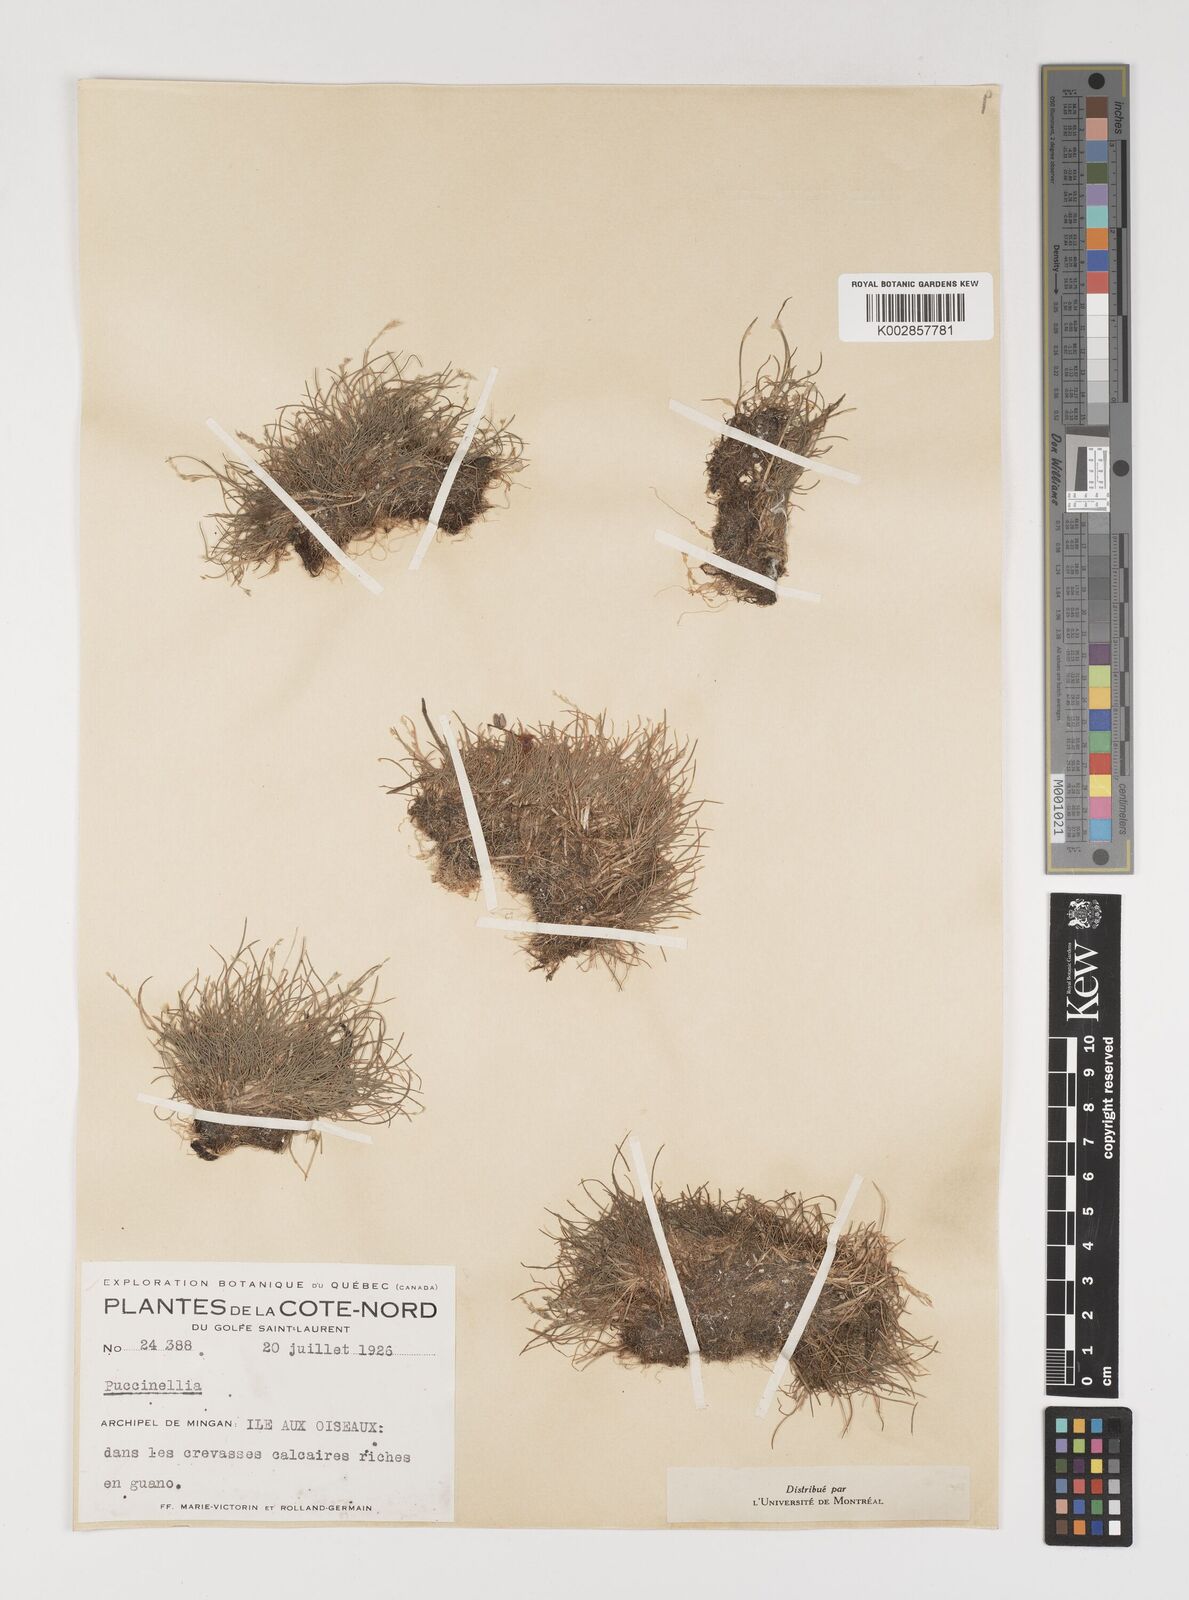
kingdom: Plantae
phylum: Tracheophyta
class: Liliopsida
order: Poales
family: Poaceae
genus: Puccinellia
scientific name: Puccinellia pumila
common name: Dwarf alkaligrass
